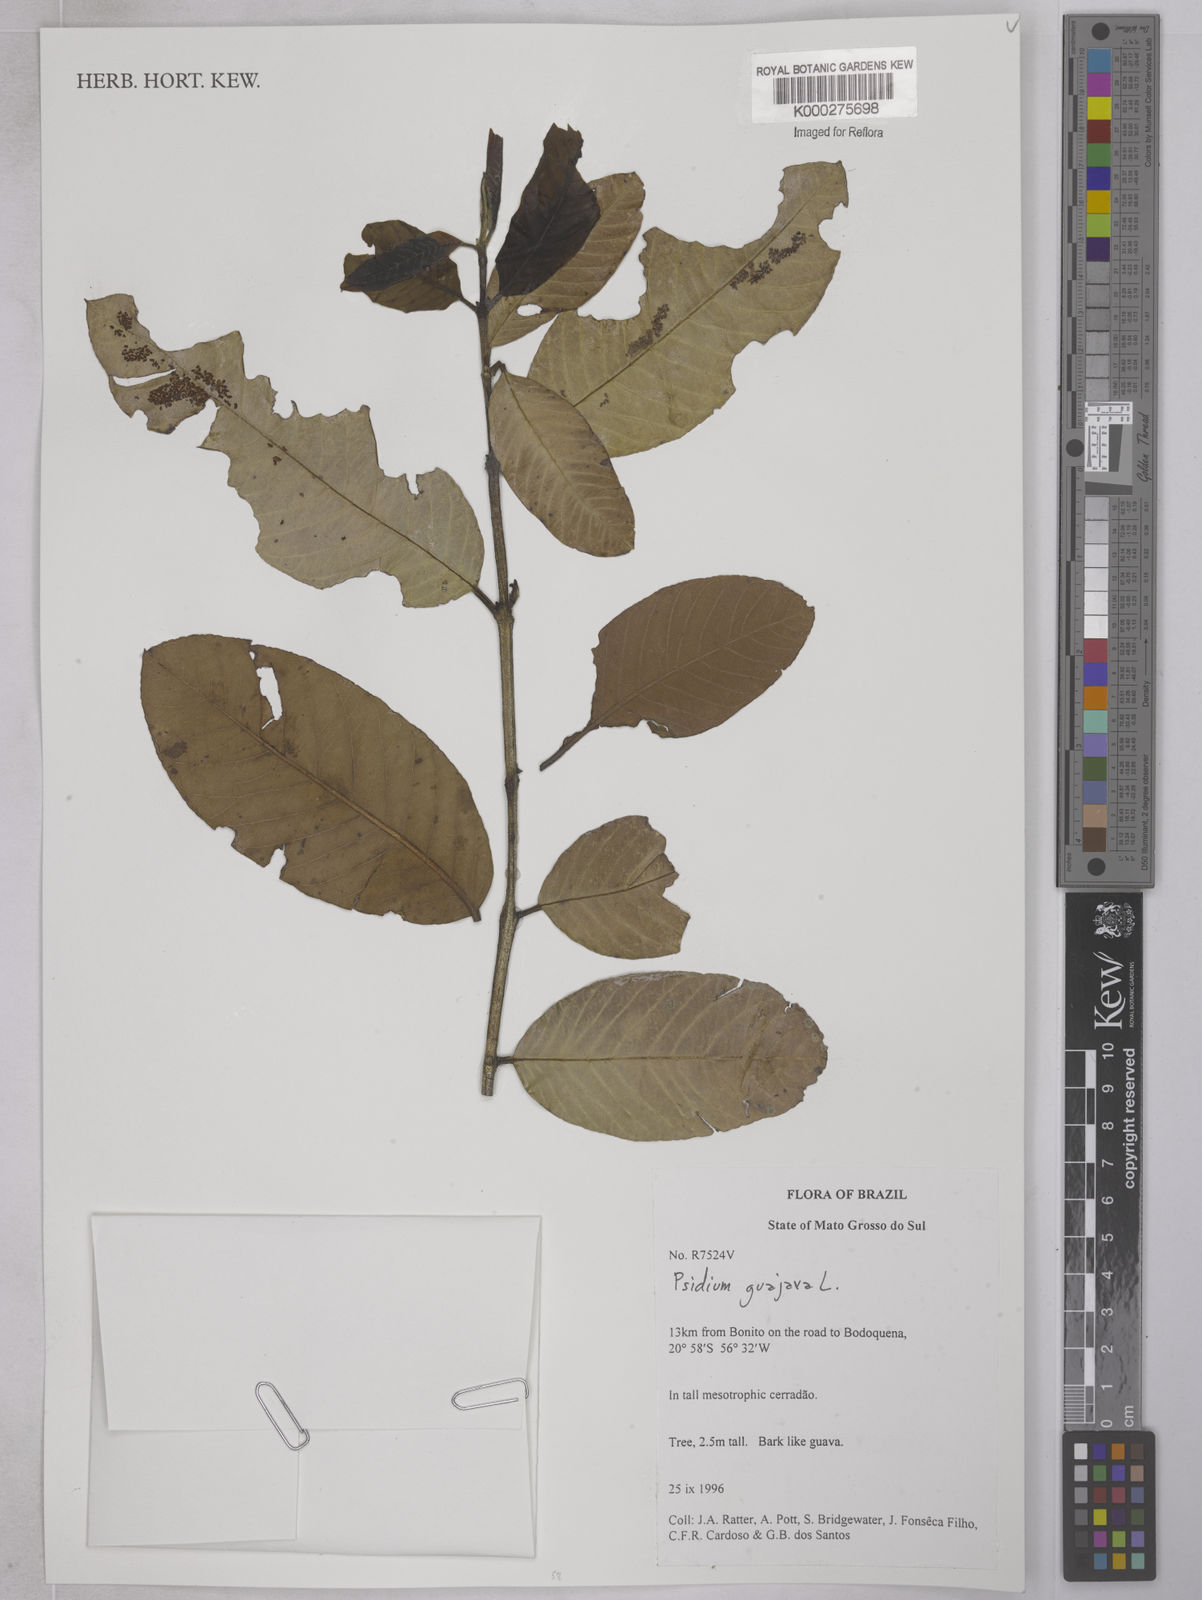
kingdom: Plantae
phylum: Tracheophyta
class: Magnoliopsida
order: Myrtales
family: Myrtaceae
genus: Psidium
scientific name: Psidium guajava
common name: Guava
